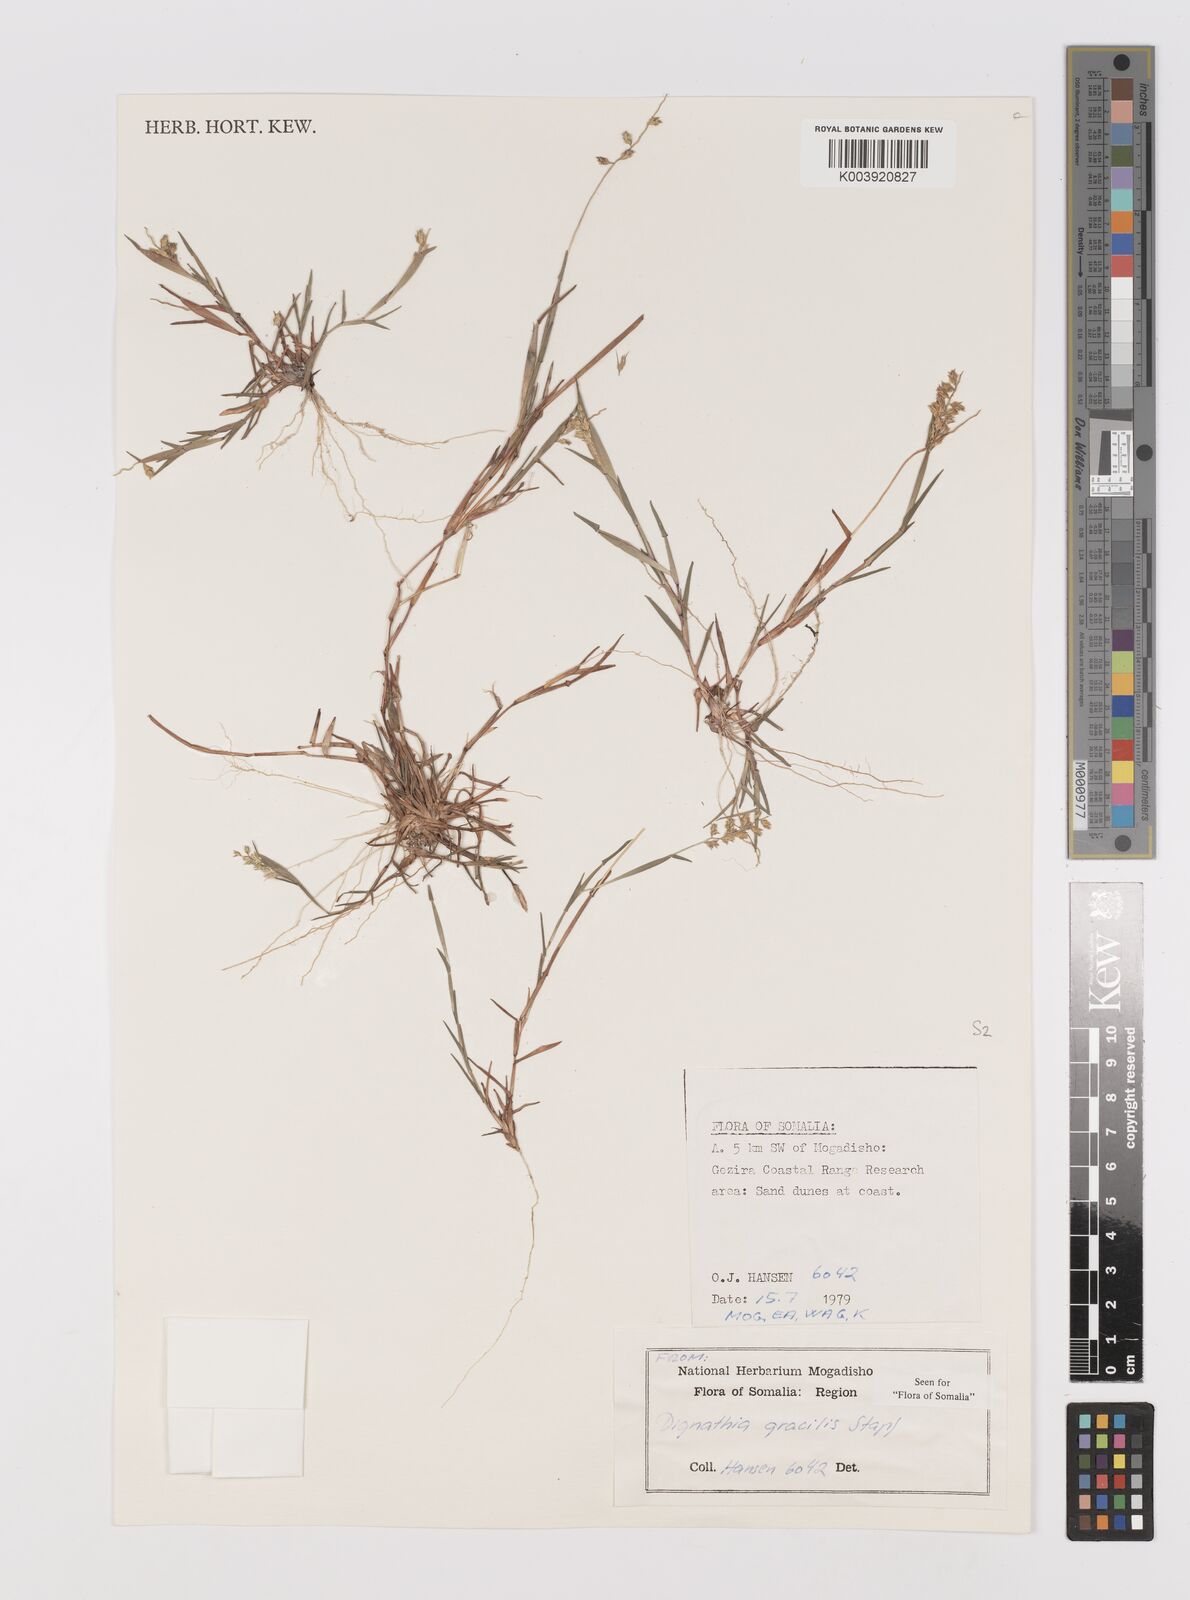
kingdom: Plantae
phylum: Tracheophyta
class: Liliopsida
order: Poales
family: Poaceae
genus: Dignathia
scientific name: Dignathia gracilis
